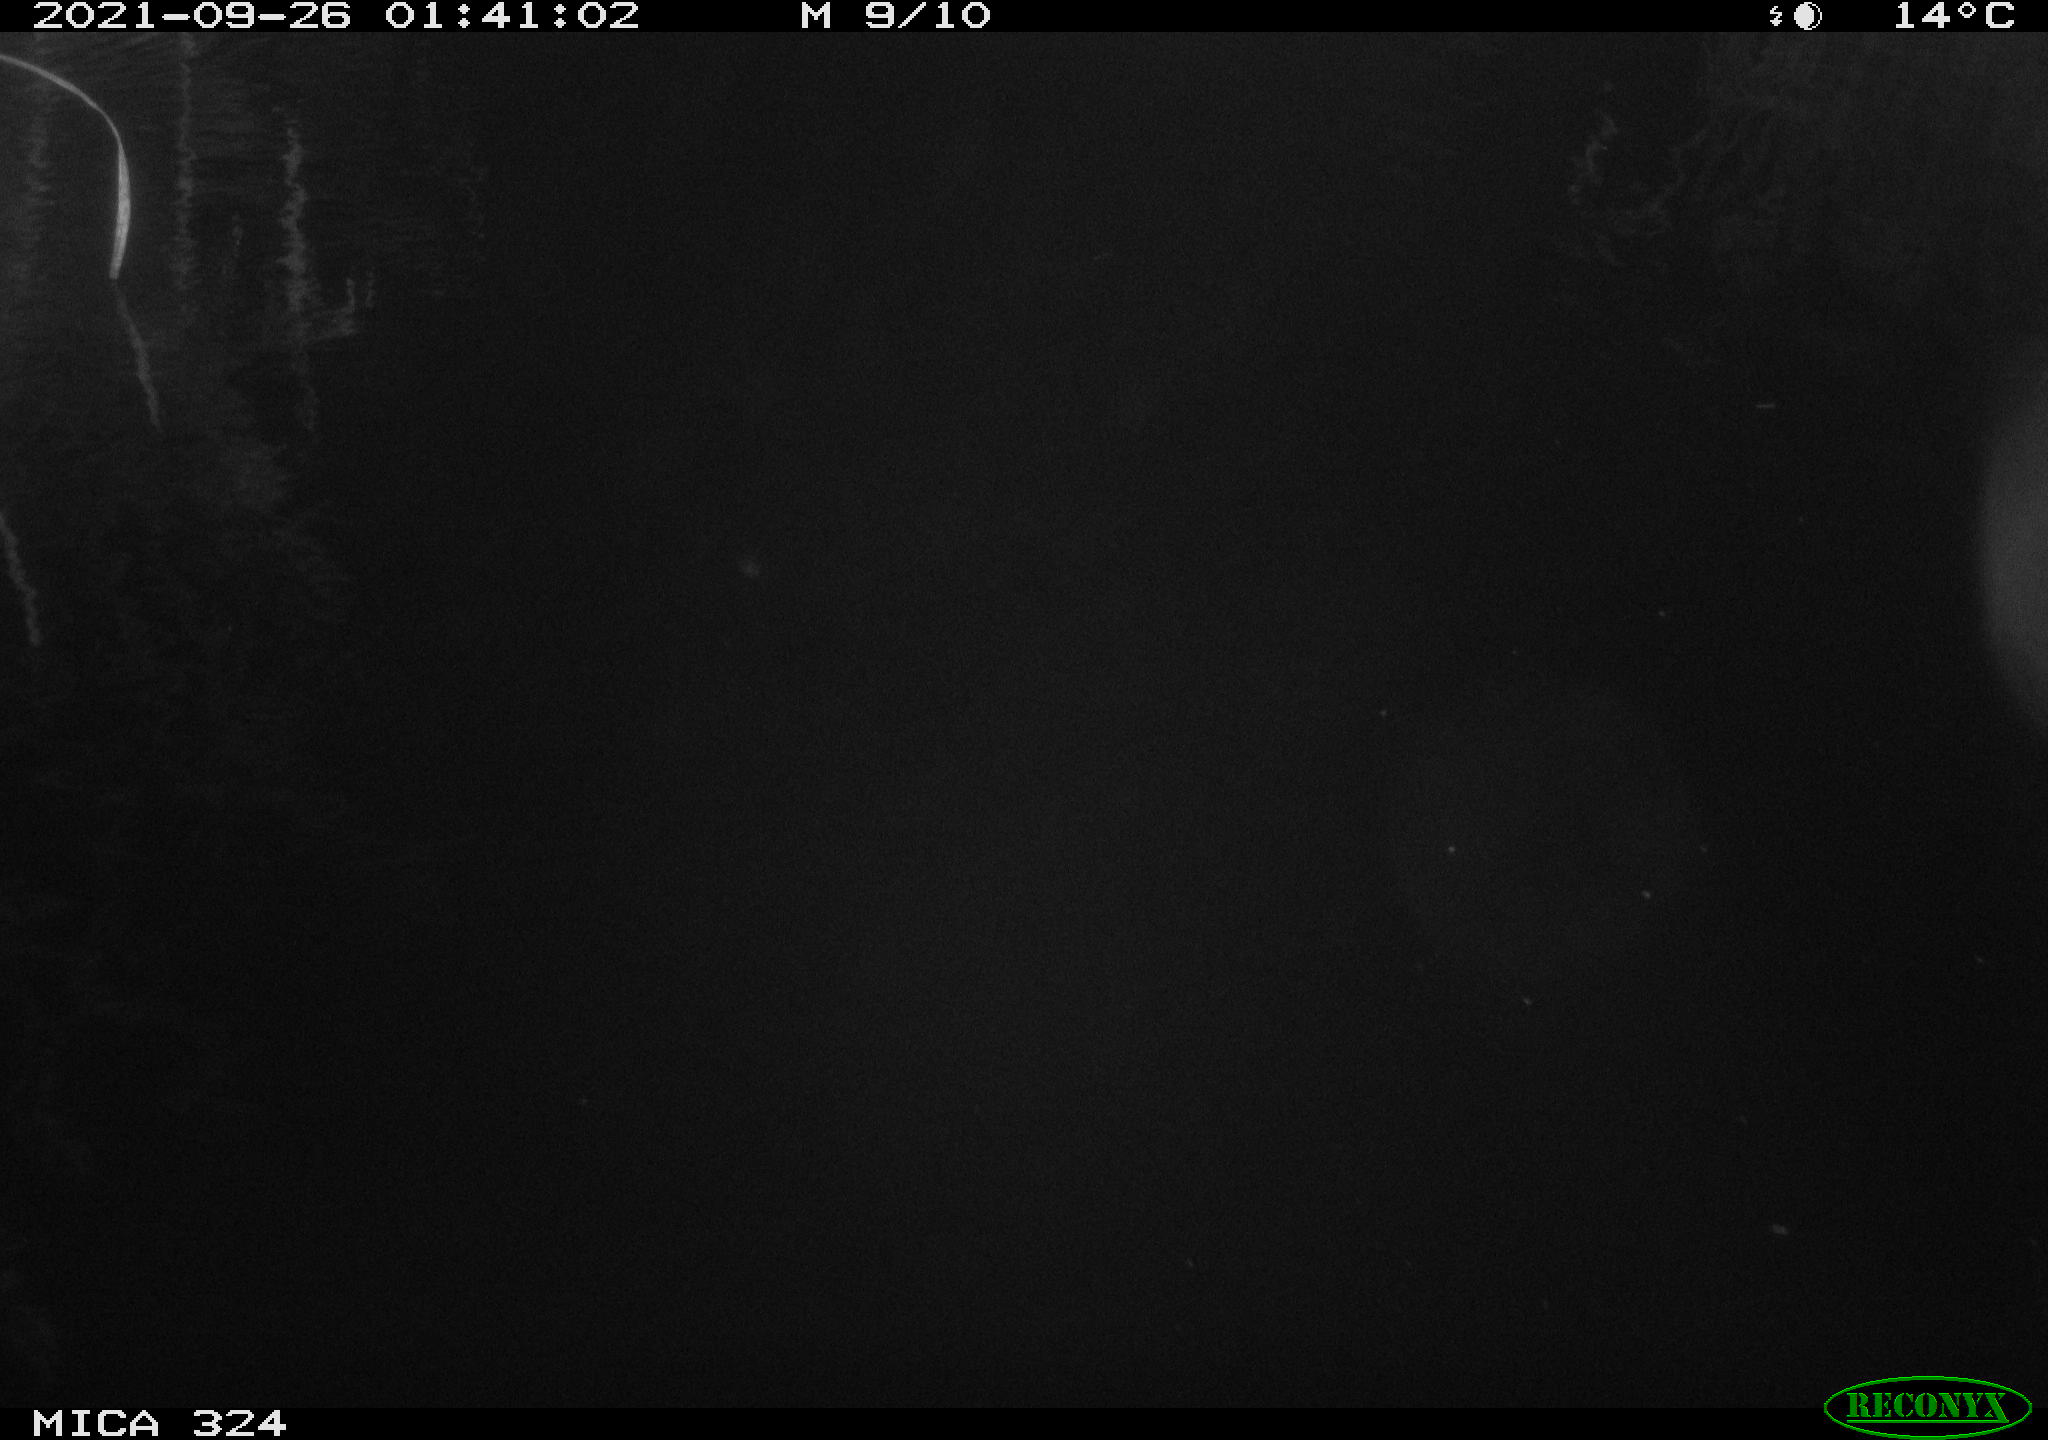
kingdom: Animalia
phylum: Chordata
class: Mammalia
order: Rodentia
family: Cricetidae
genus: Ondatra
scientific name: Ondatra zibethicus
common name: Muskrat
